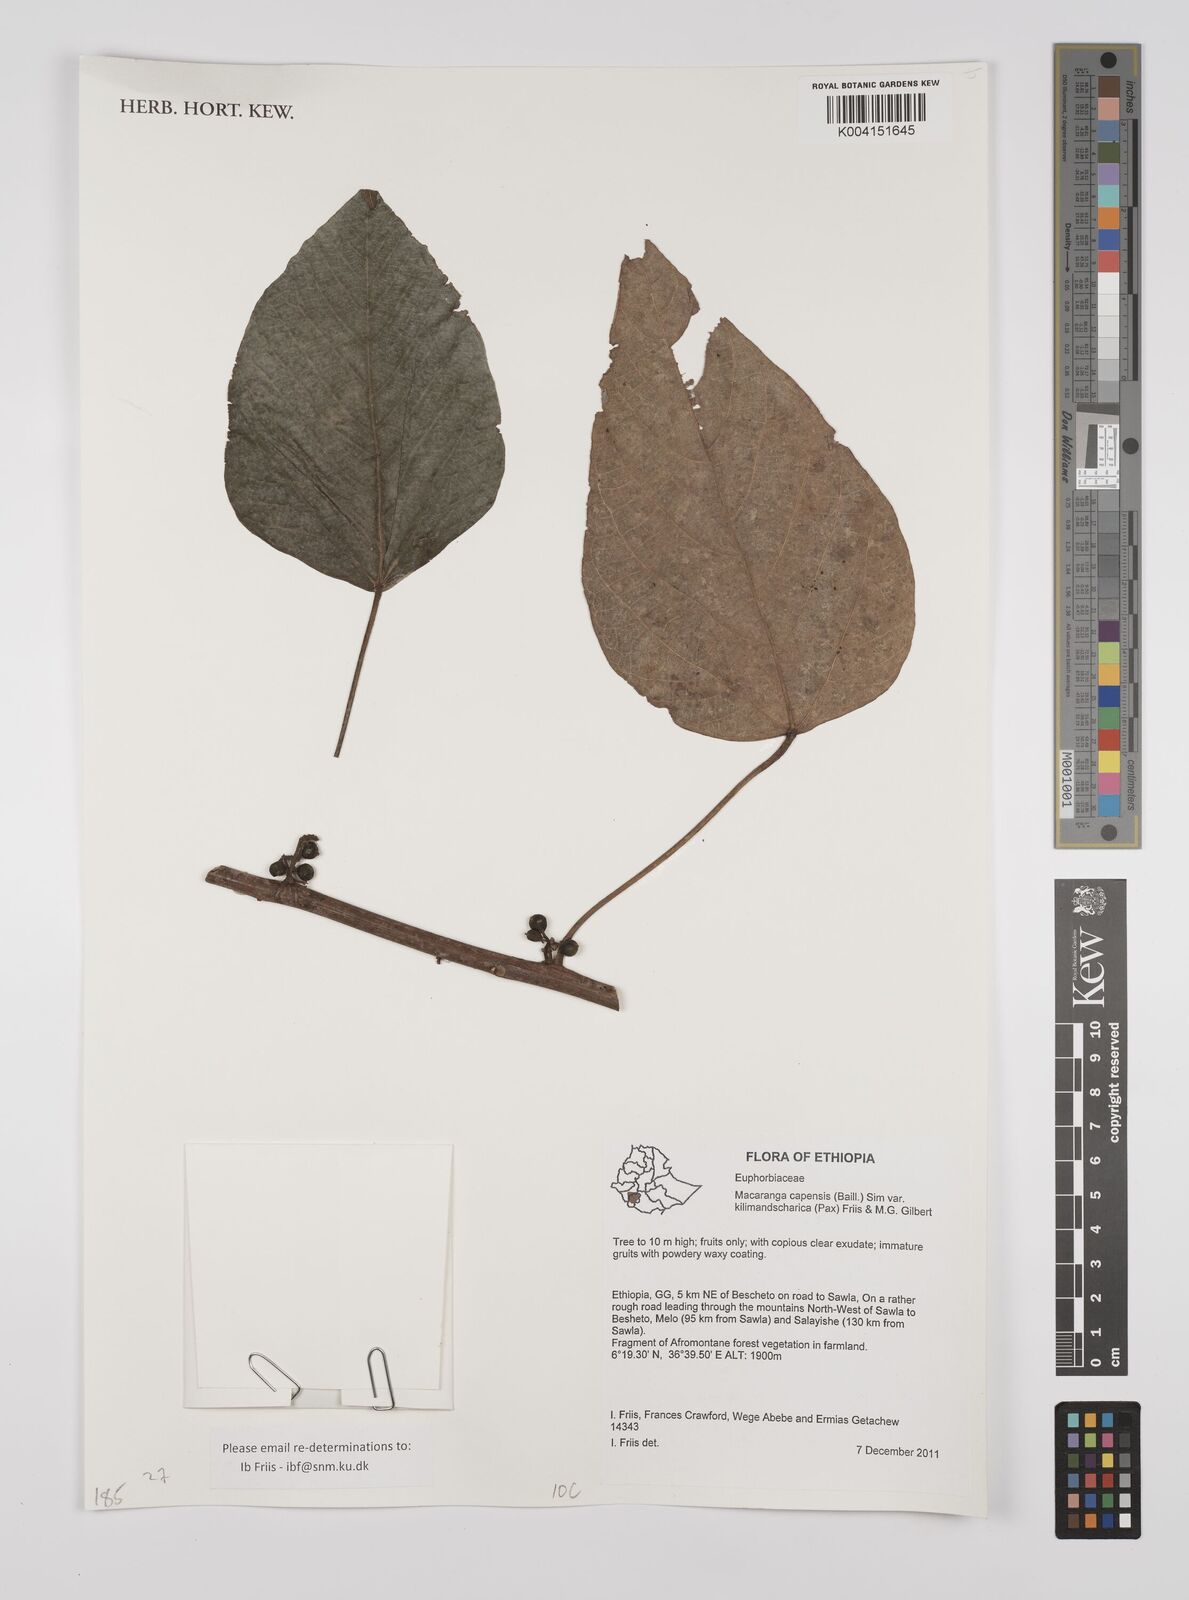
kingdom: Plantae
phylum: Tracheophyta
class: Magnoliopsida
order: Malpighiales
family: Euphorbiaceae
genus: Macaranga
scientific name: Macaranga capensis
